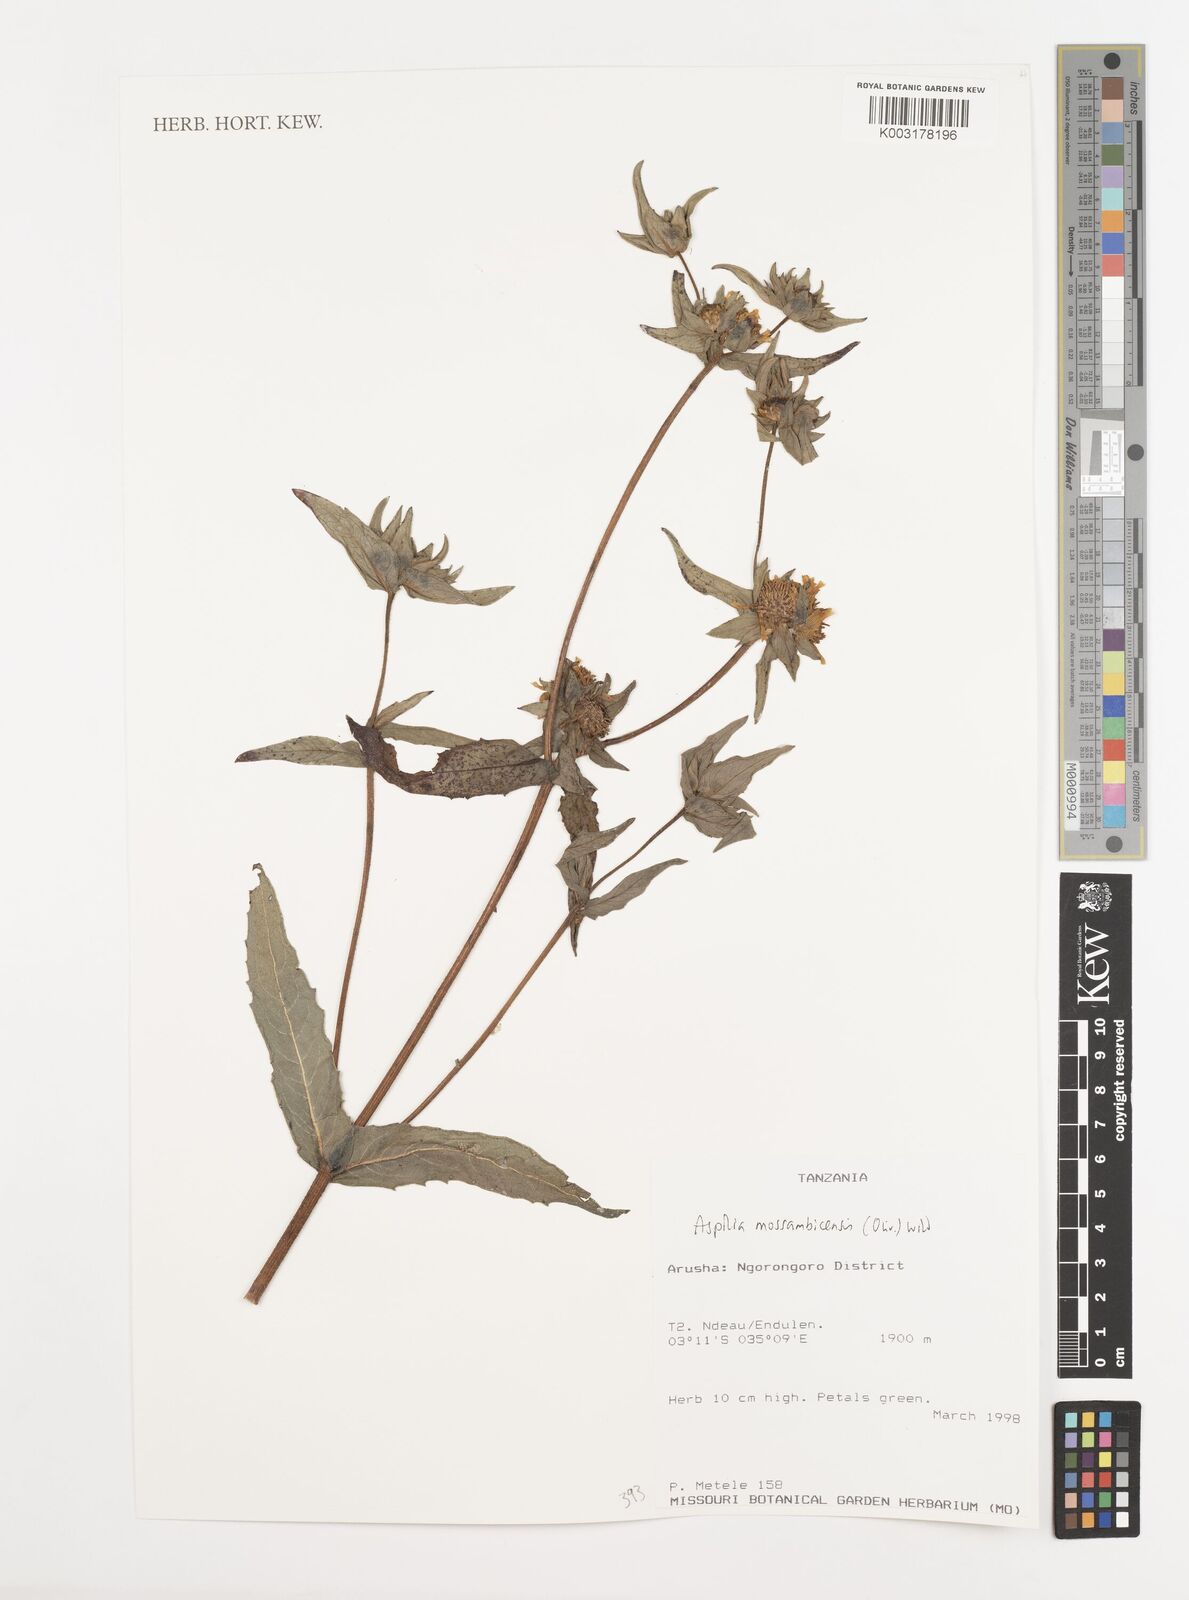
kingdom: Plantae
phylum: Tracheophyta
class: Magnoliopsida
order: Asterales
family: Asteraceae
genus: Aspilia
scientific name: Aspilia mossambicensis
